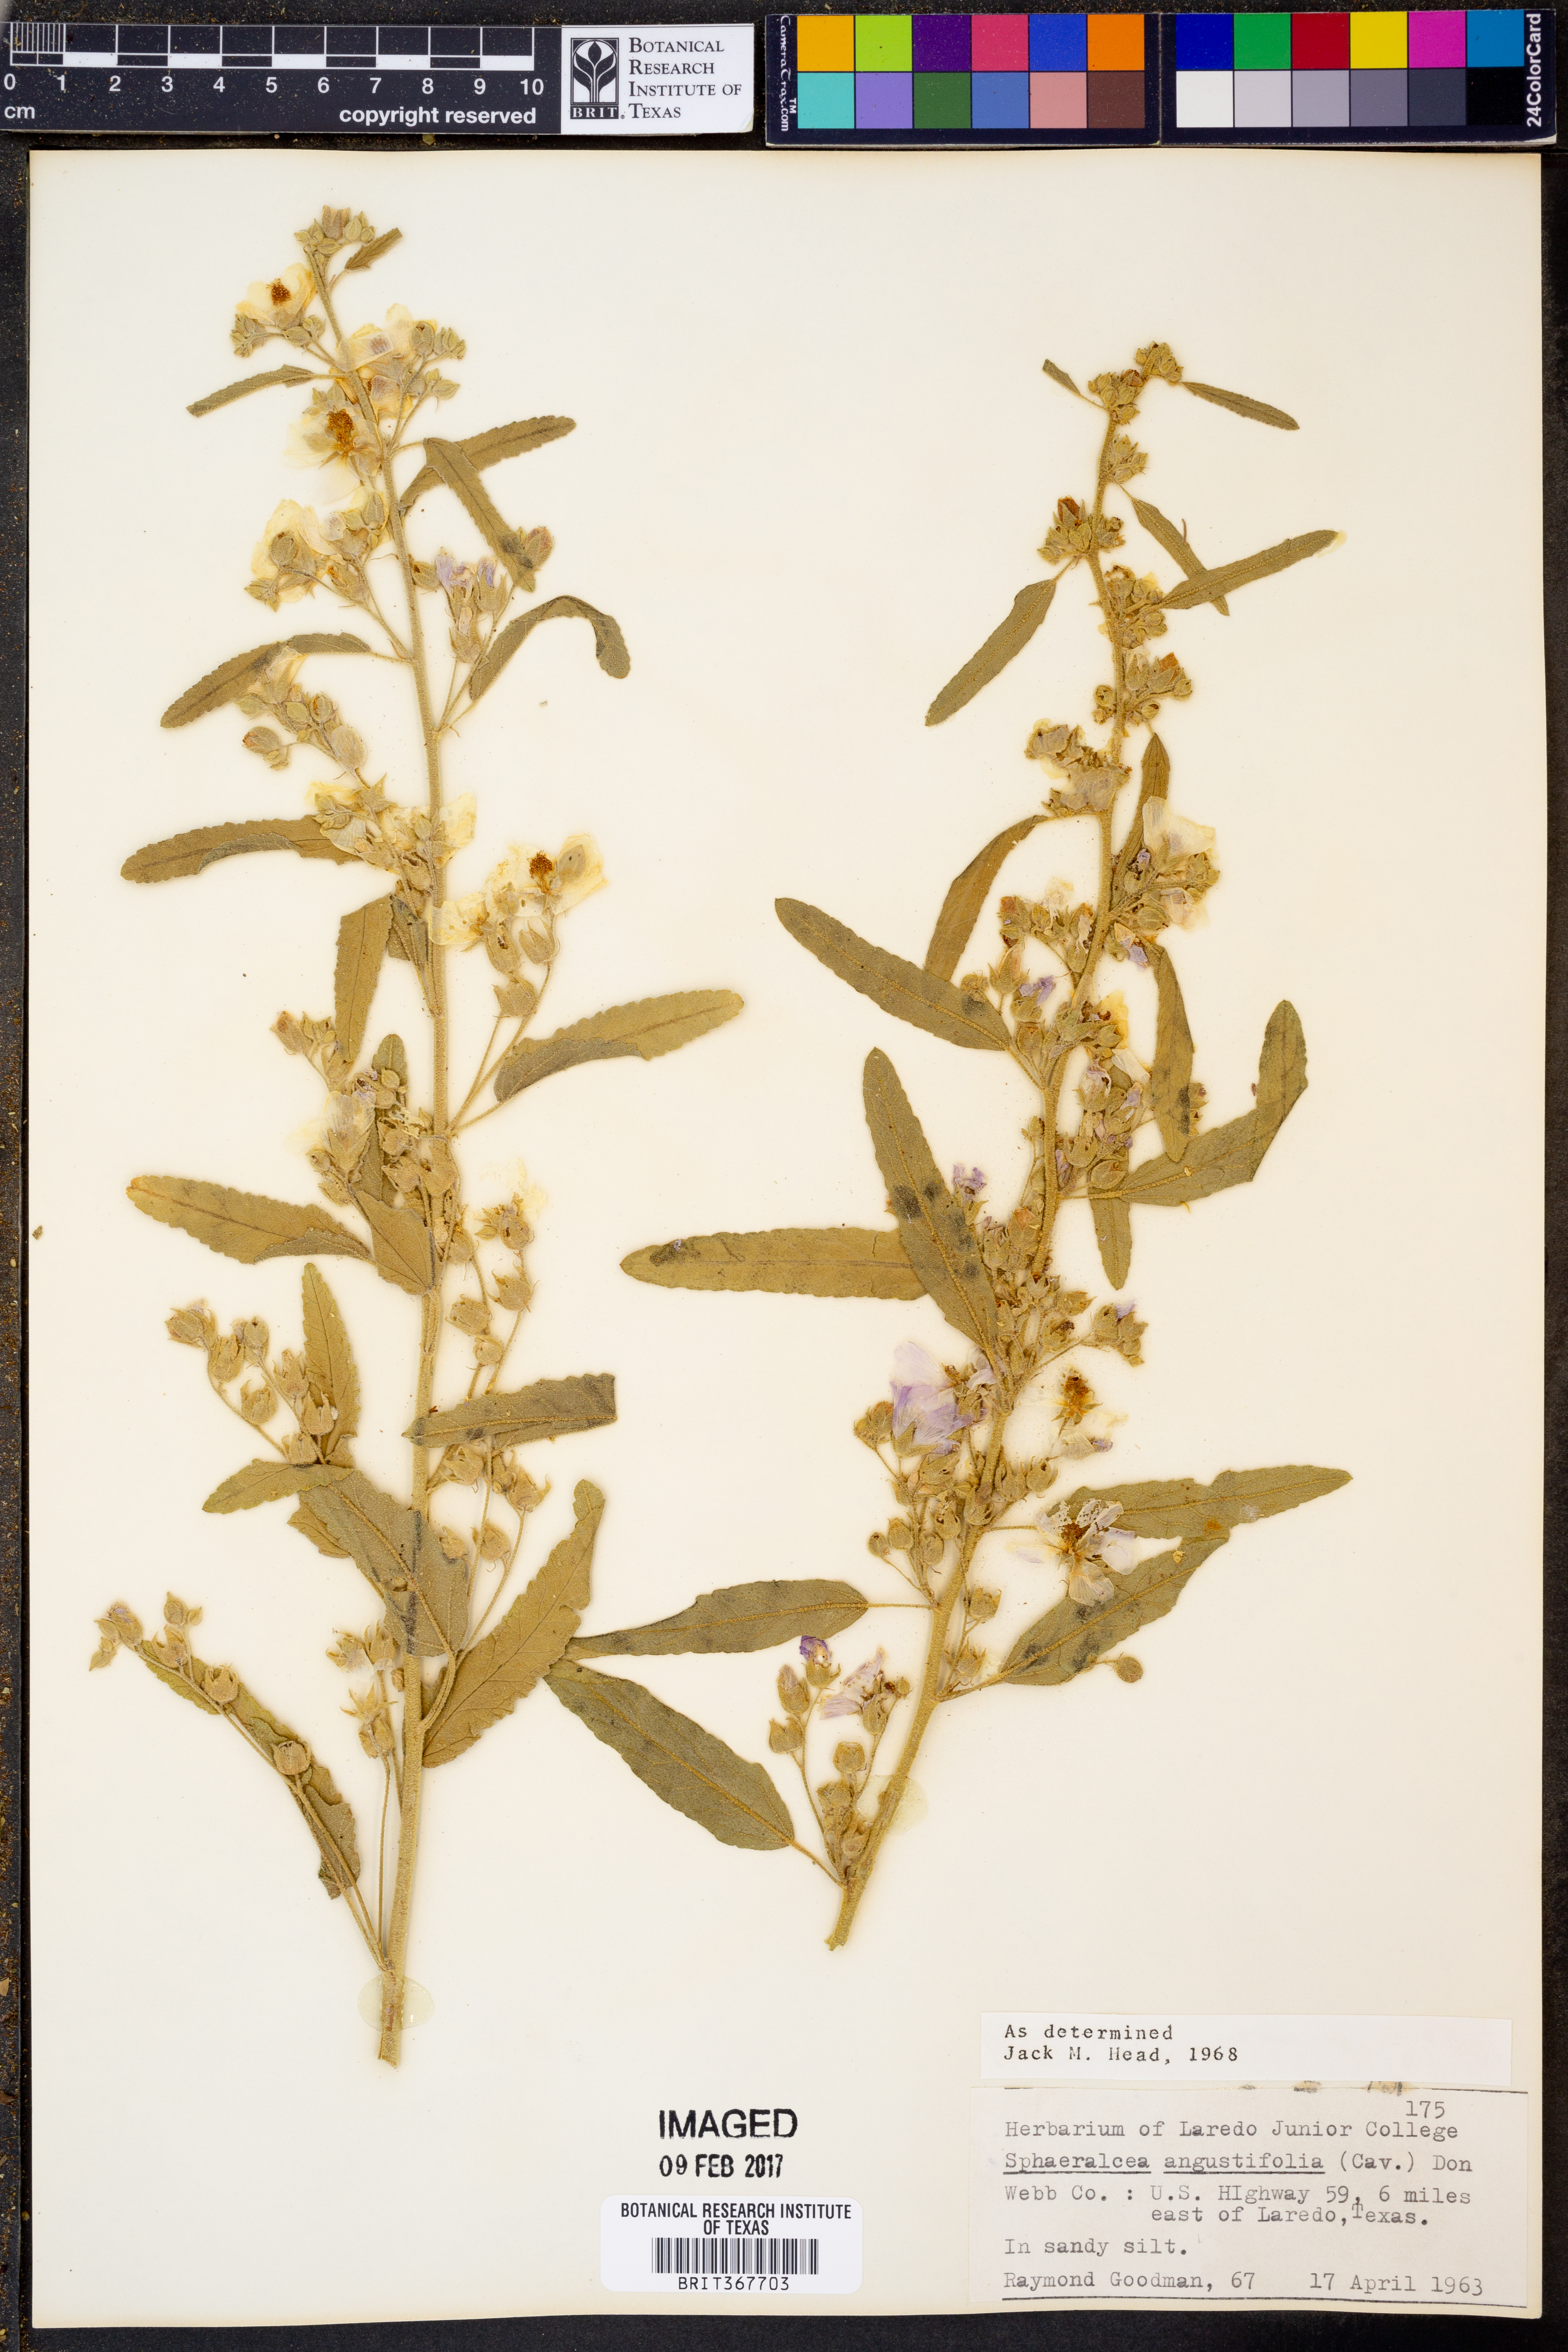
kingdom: Plantae
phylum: Tracheophyta
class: Magnoliopsida
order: Malvales
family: Malvaceae
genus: Sphaeralcea
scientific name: Sphaeralcea angustifolia
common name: Copper globe-mallow
